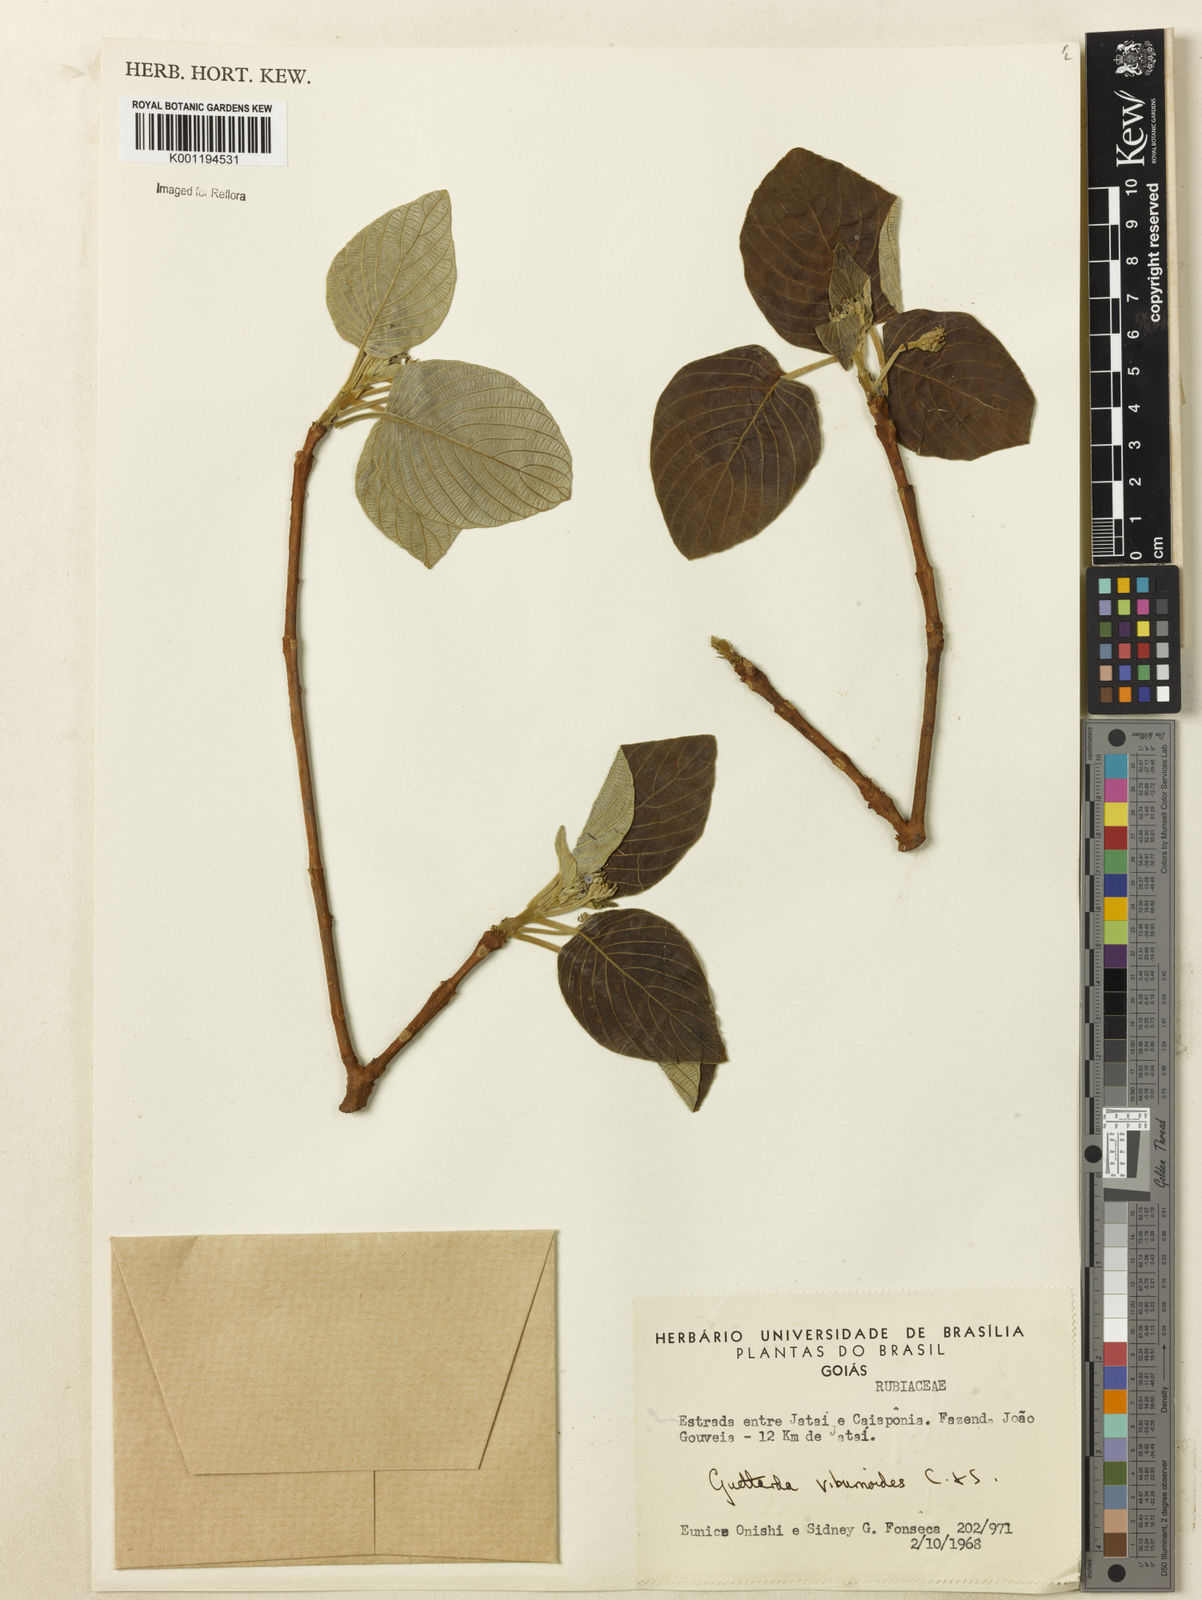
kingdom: Plantae
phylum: Tracheophyta
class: Magnoliopsida
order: Gentianales
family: Rubiaceae
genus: Guettarda
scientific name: Guettarda viburnoides
